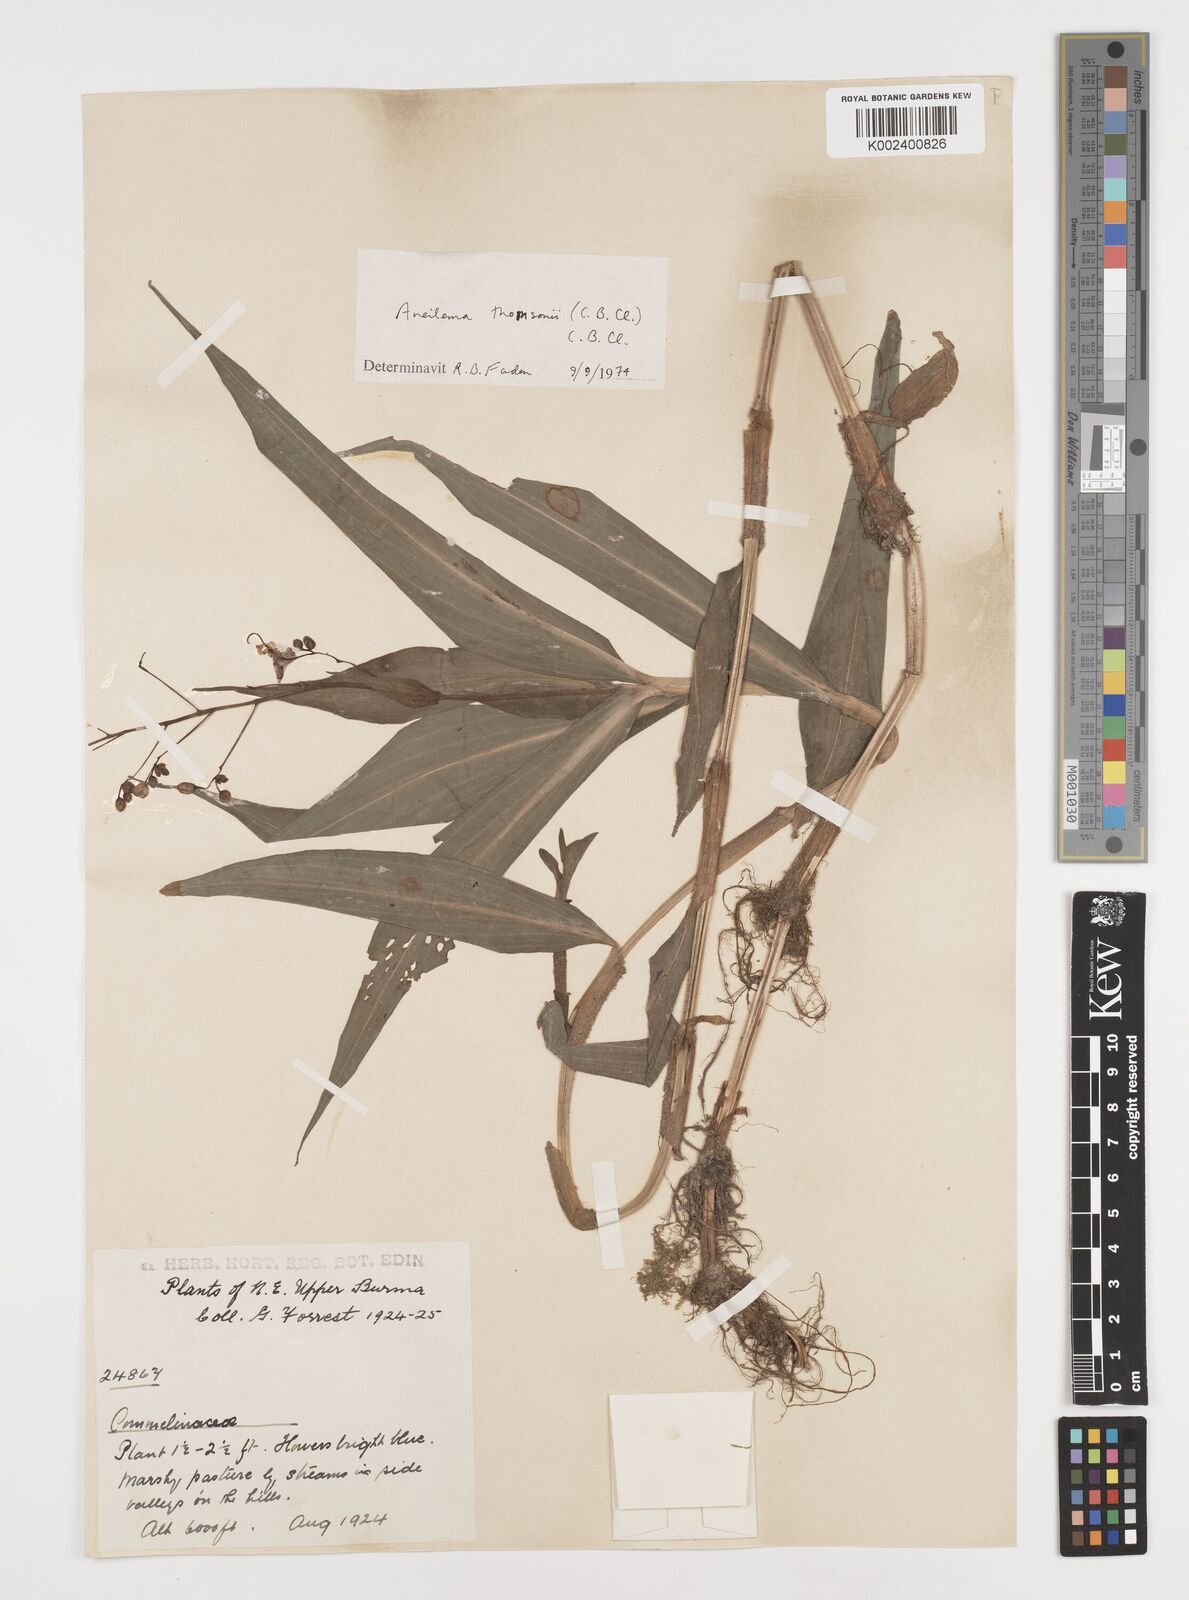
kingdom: Plantae
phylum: Tracheophyta
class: Liliopsida
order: Commelinales
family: Commelinaceae
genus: Tricarpelema
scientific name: Tricarpelema
